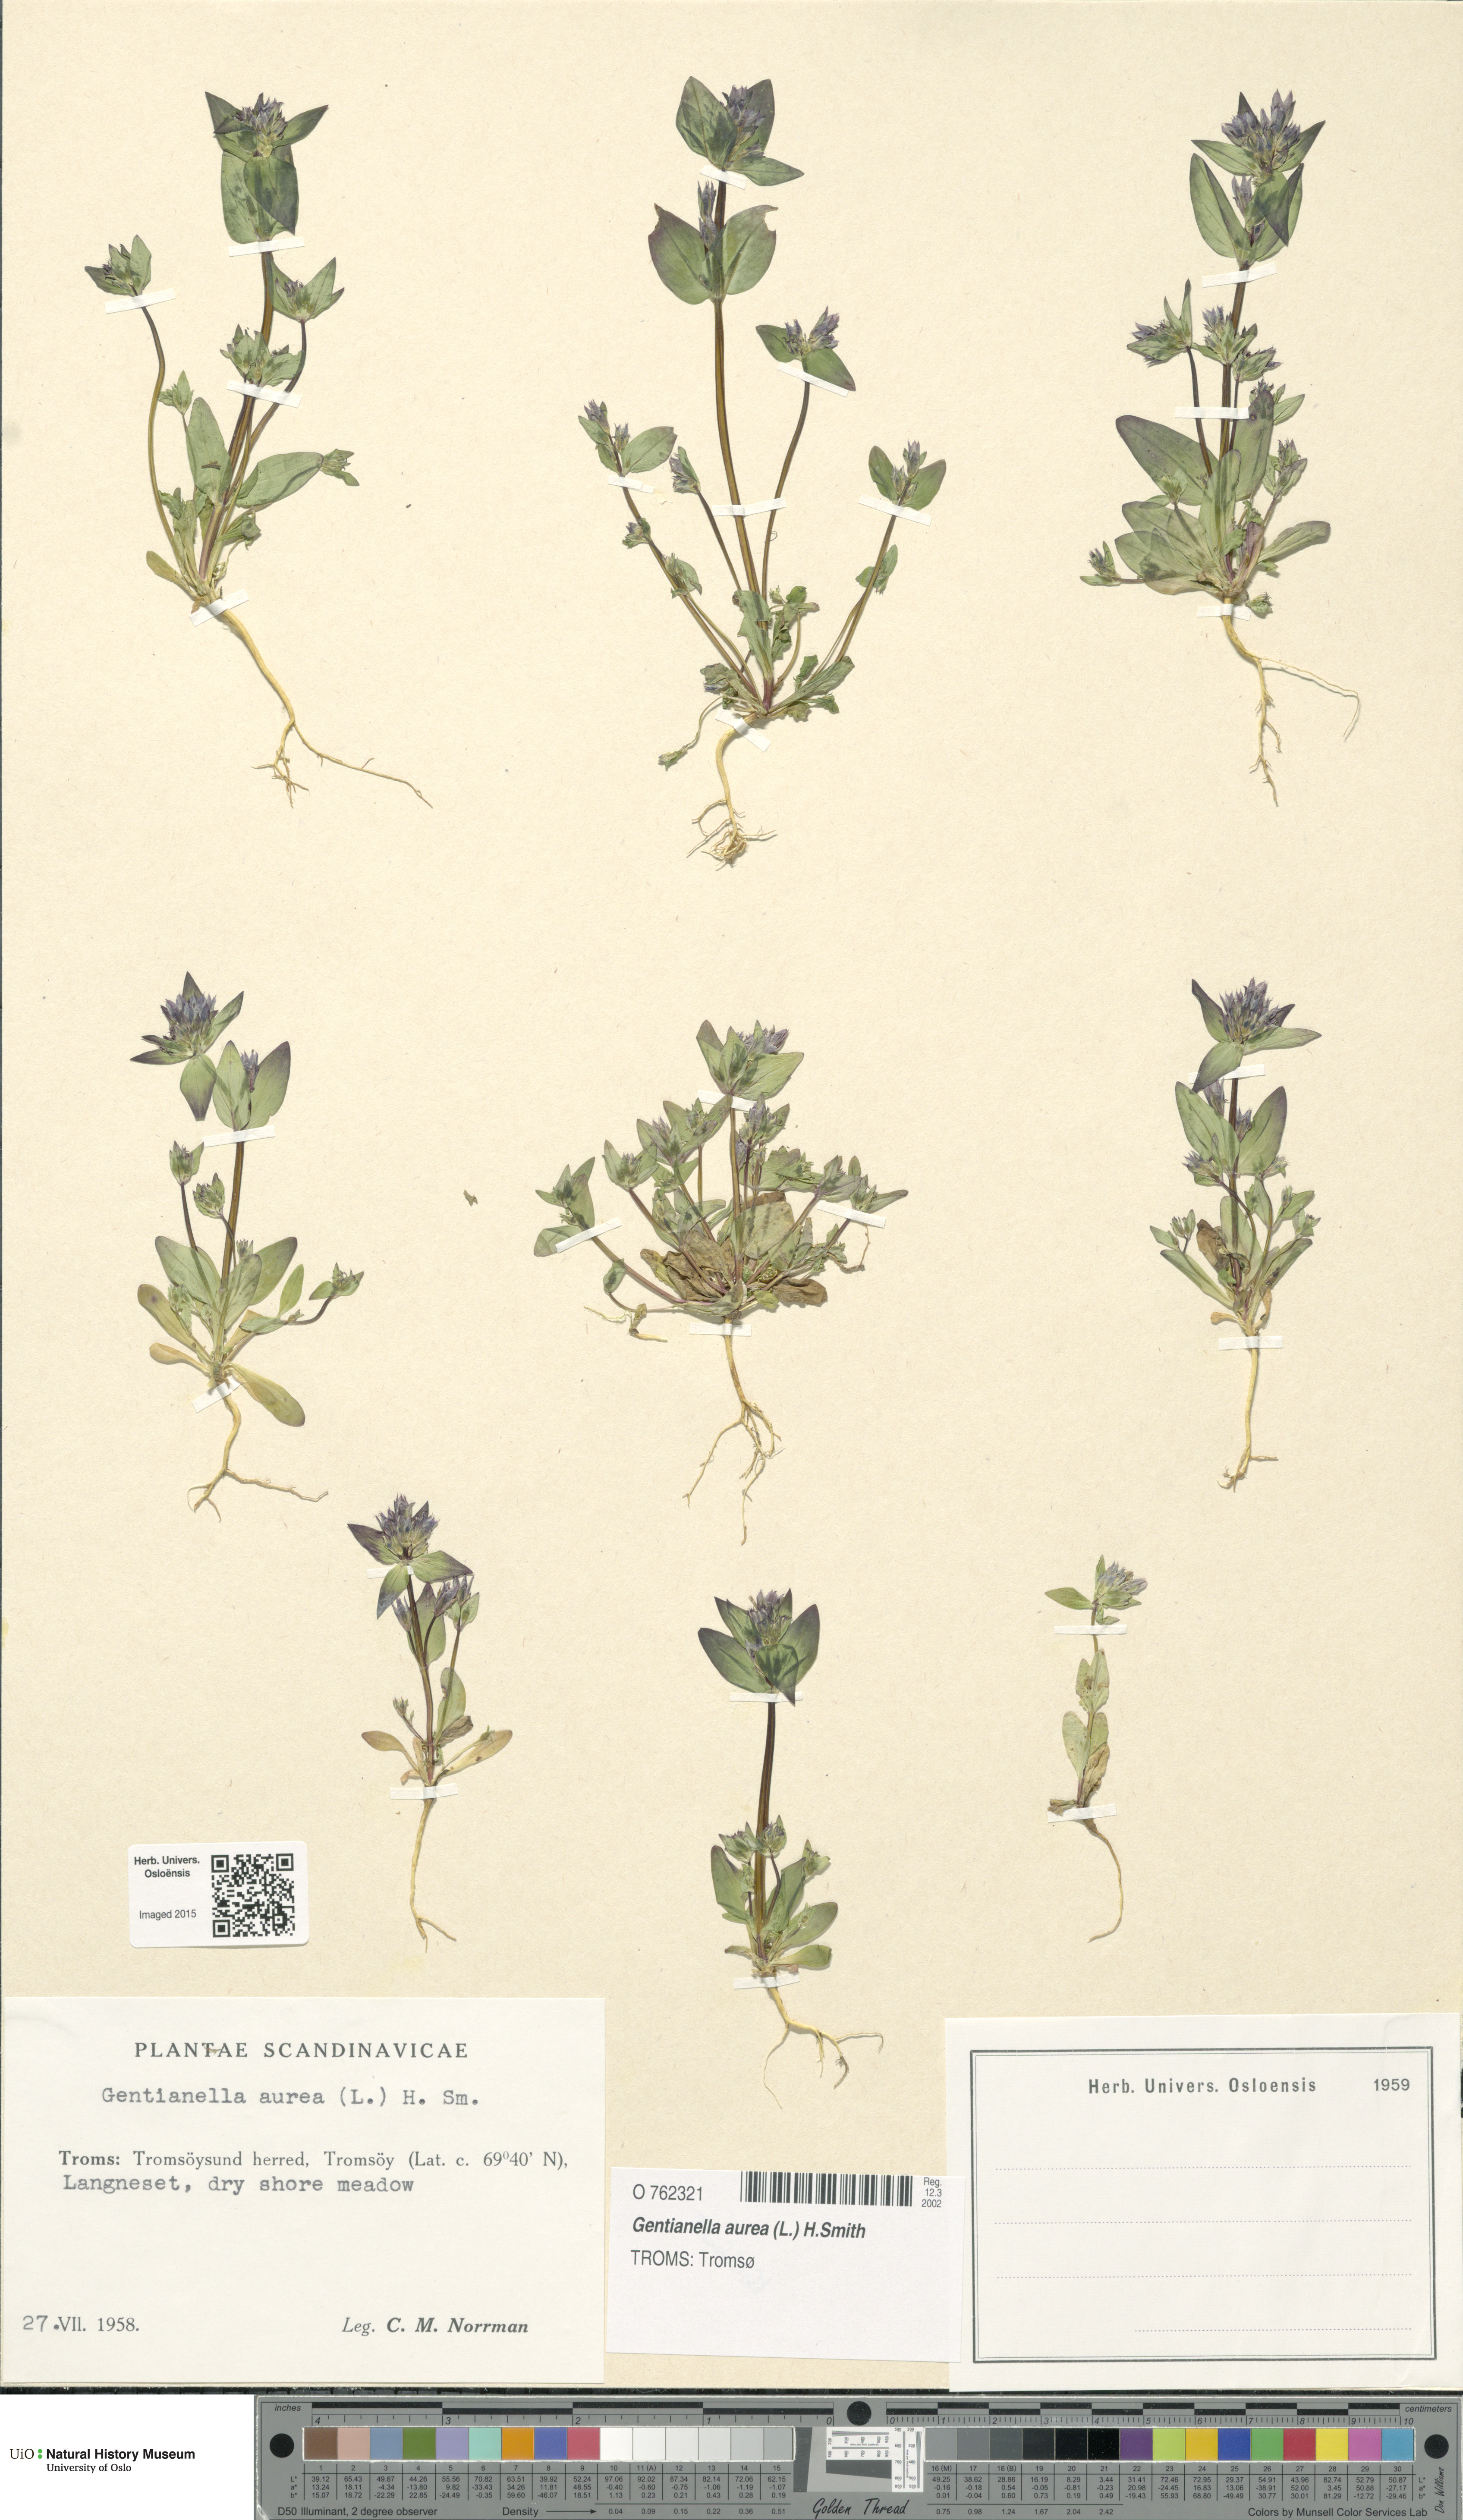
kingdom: Plantae
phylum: Tracheophyta
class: Magnoliopsida
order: Gentianales
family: Gentianaceae
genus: Gentianella
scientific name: Gentianella aurea
